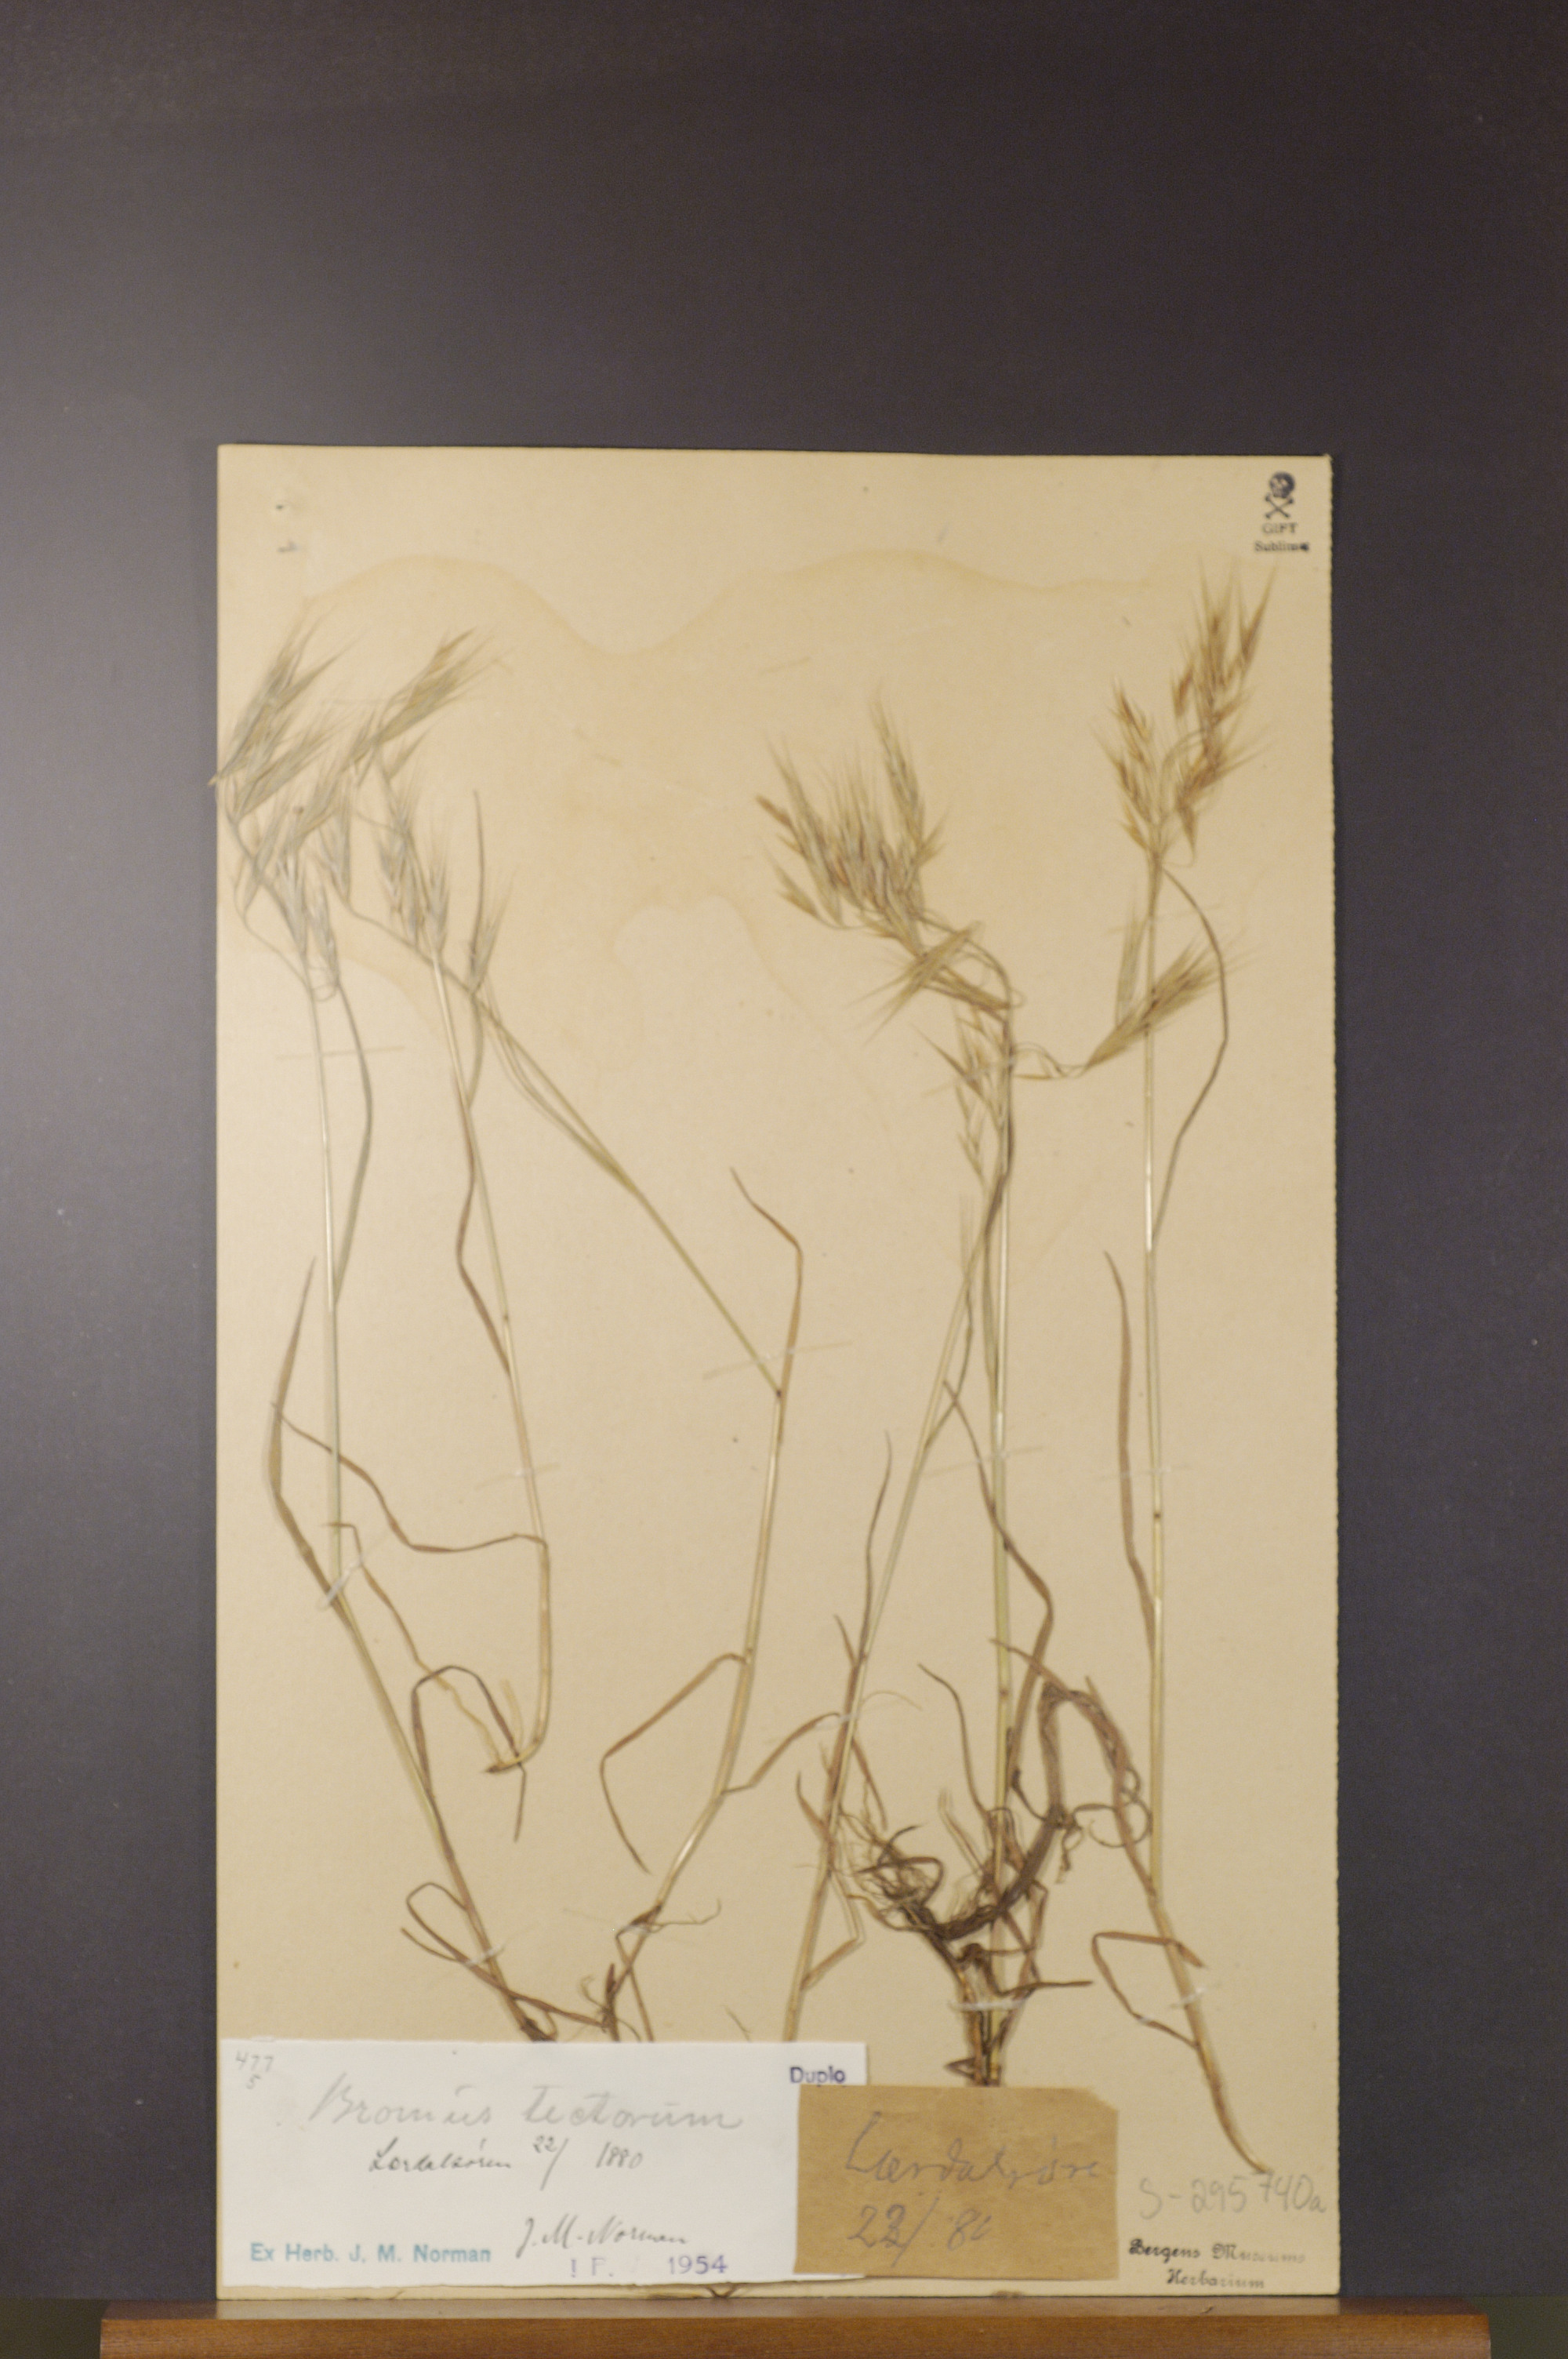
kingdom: Plantae
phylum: Tracheophyta
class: Liliopsida
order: Poales
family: Poaceae
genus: Bromus
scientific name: Bromus tectorum
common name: Cheatgrass
